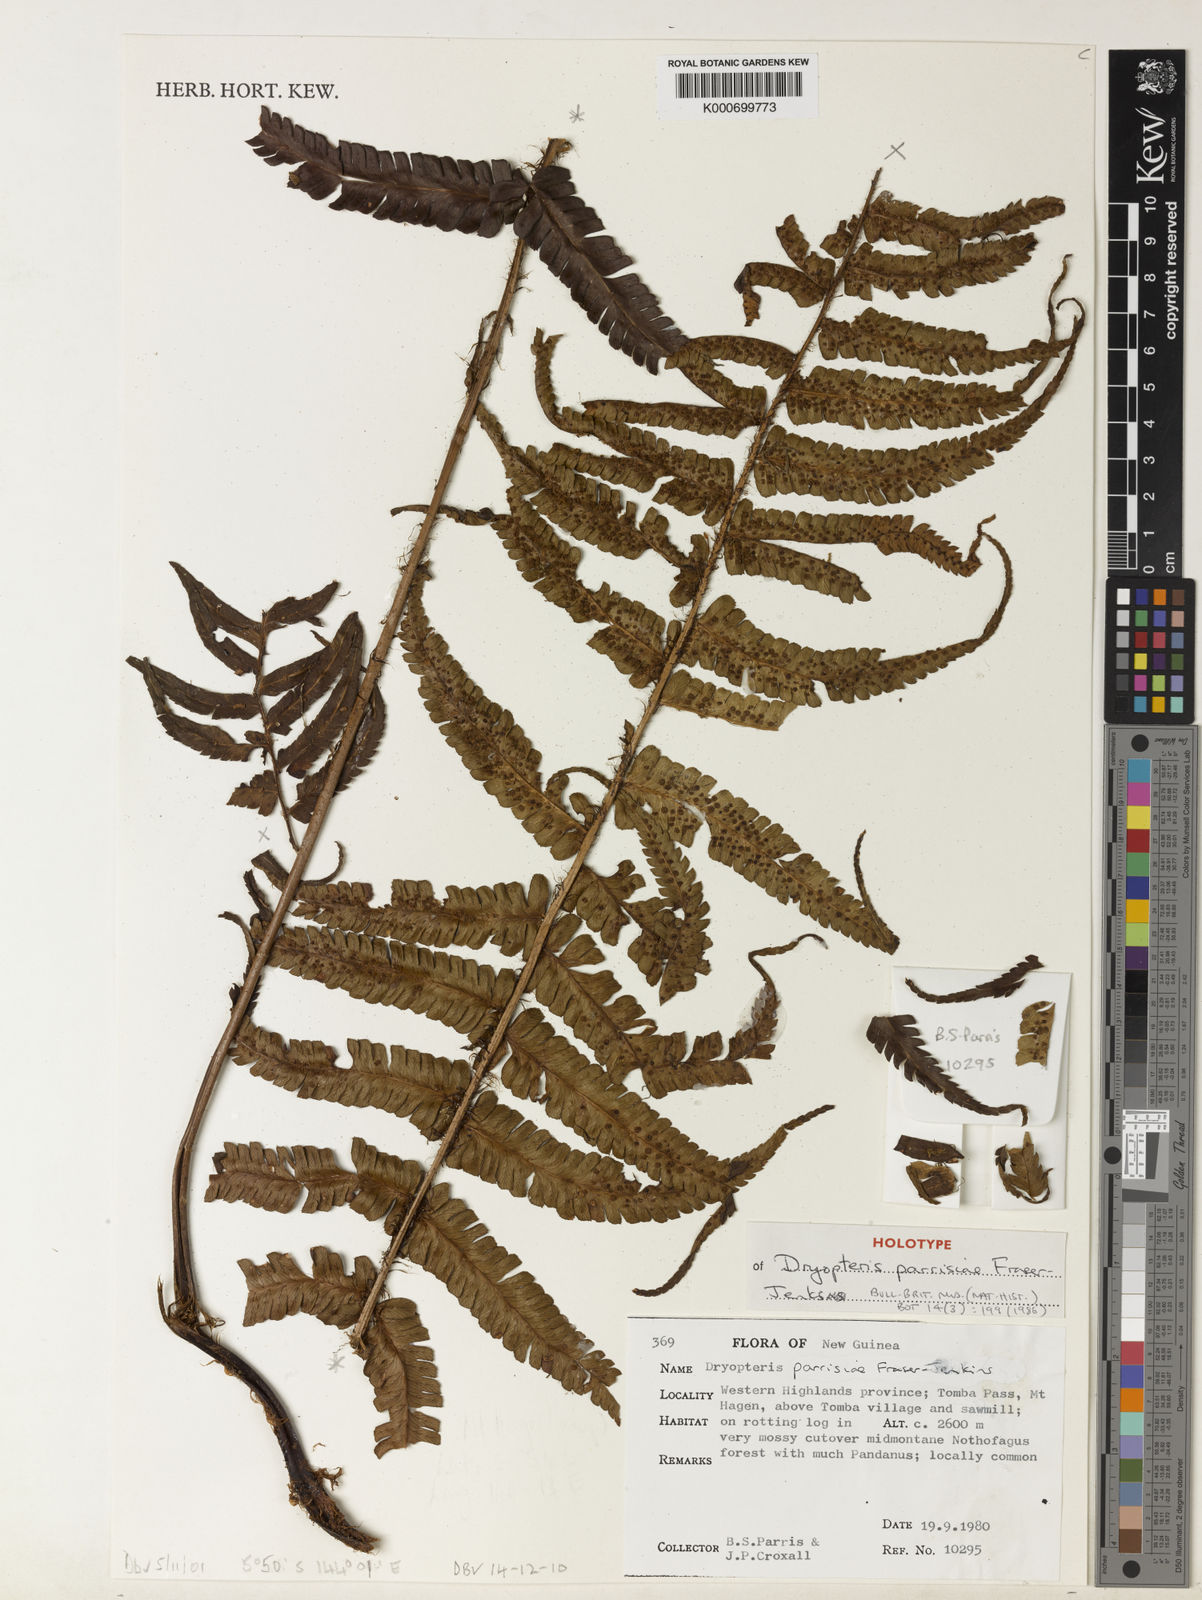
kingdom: Plantae
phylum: Tracheophyta
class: Polypodiopsida
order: Polypodiales
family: Dryopteridaceae
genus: Dryopteris
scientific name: Dryopteris wallichiana
